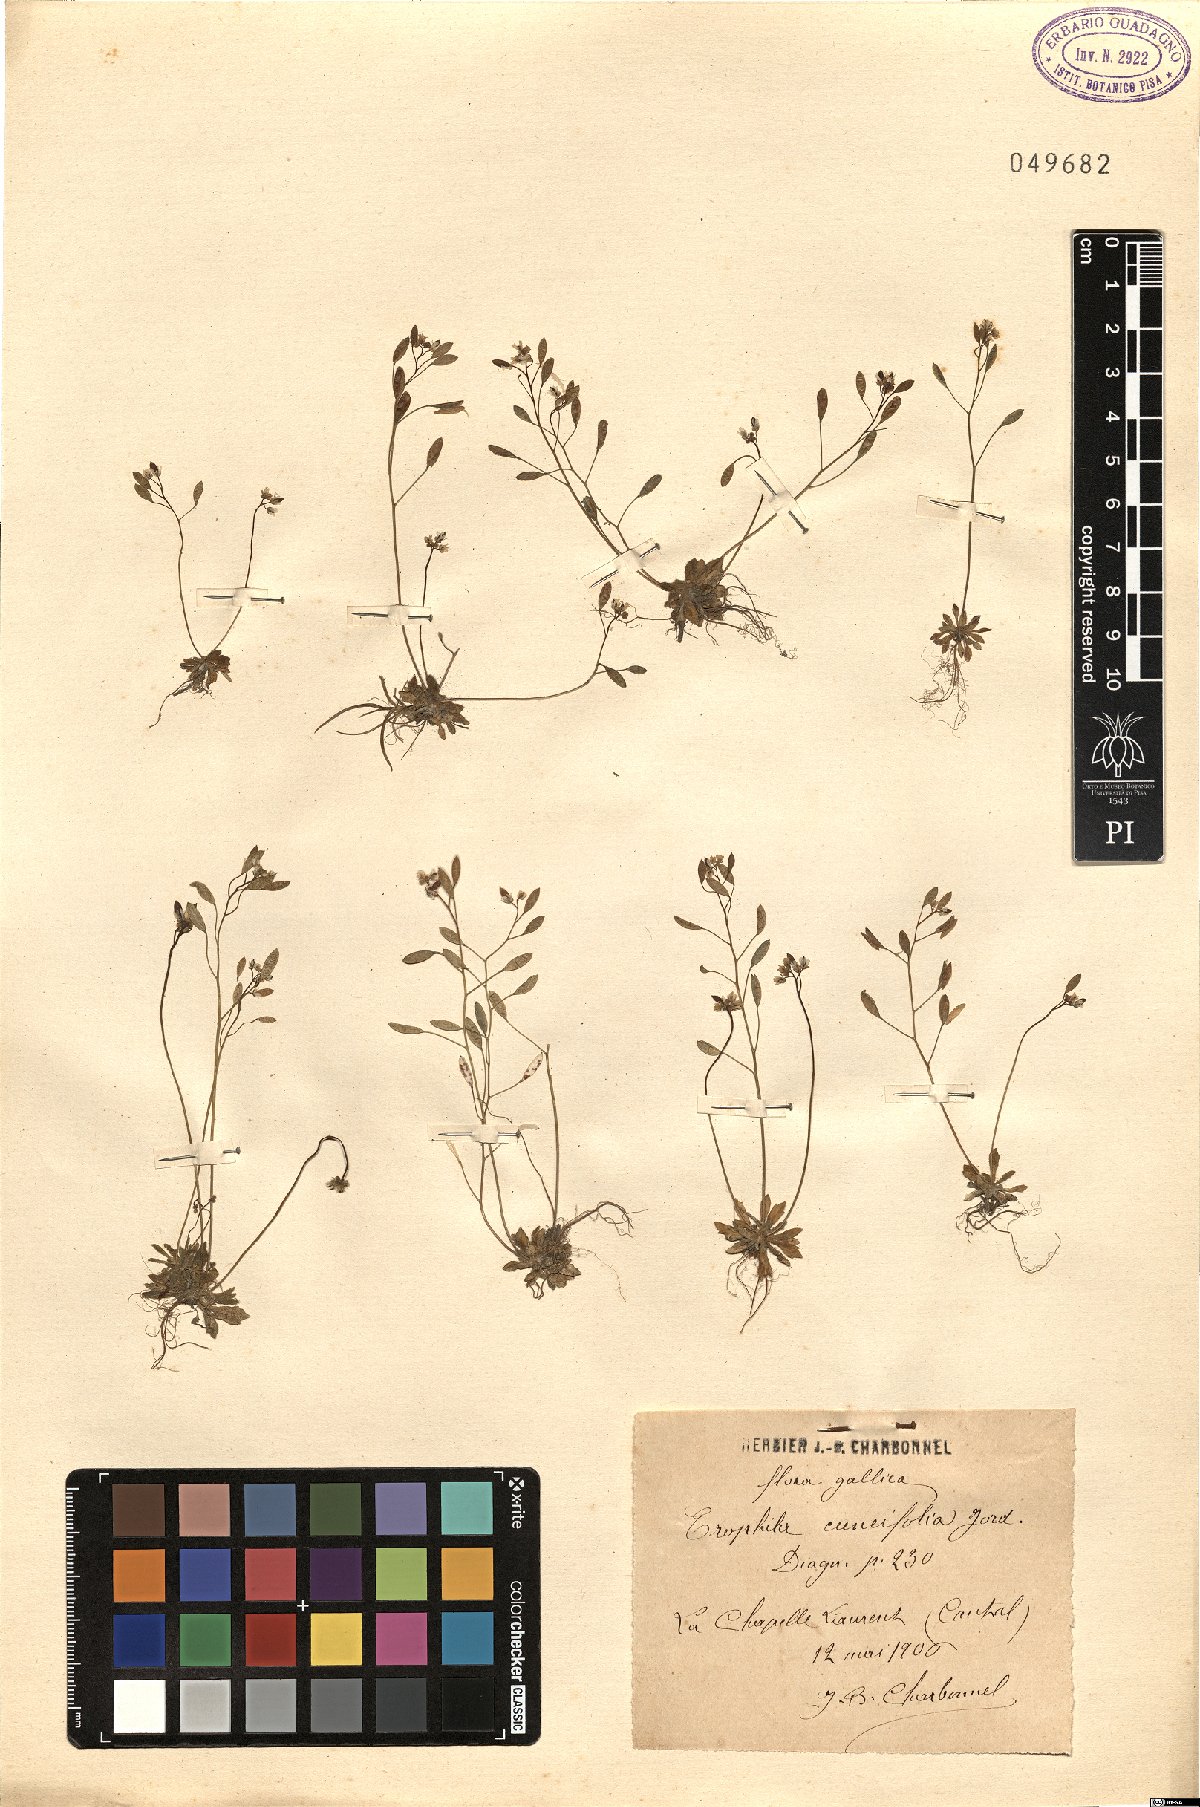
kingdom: Plantae
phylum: Tracheophyta
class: Magnoliopsida
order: Brassicales
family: Brassicaceae
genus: Draba
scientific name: Draba verna
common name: Spring draba
